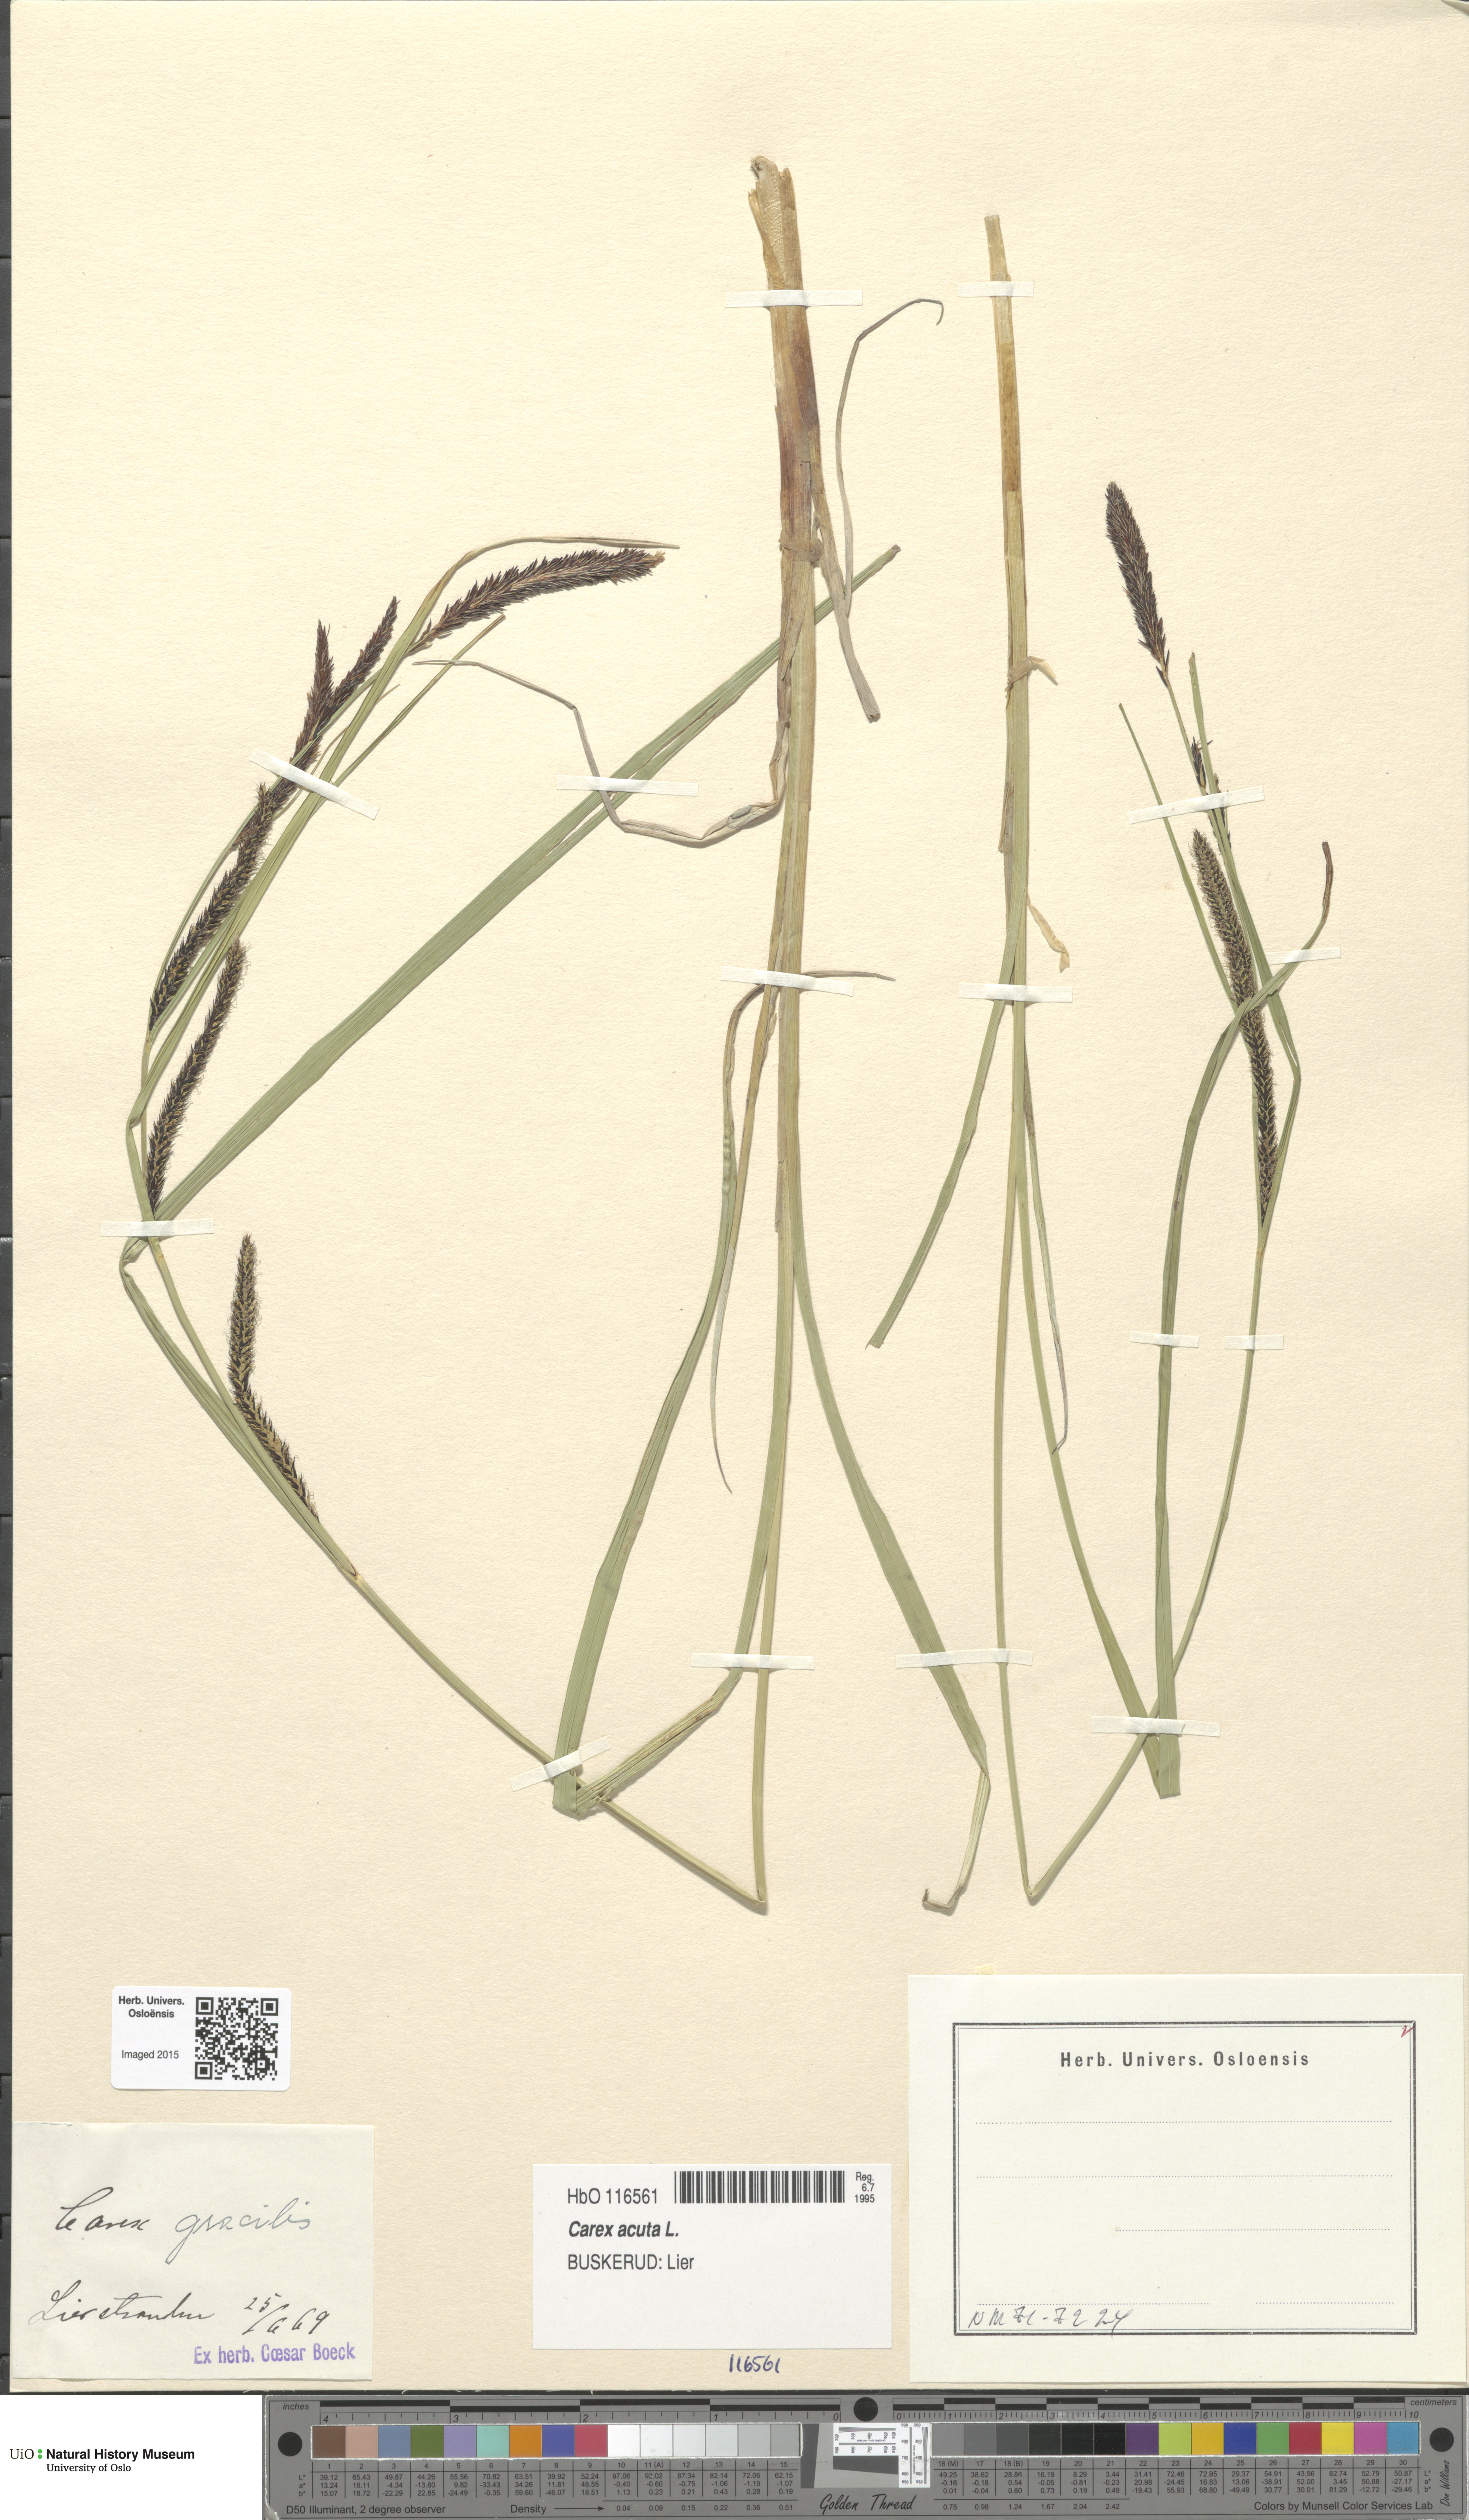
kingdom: Plantae
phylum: Tracheophyta
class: Liliopsida
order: Poales
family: Cyperaceae
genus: Carex
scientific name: Carex acuta
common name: Slender tufted-sedge
